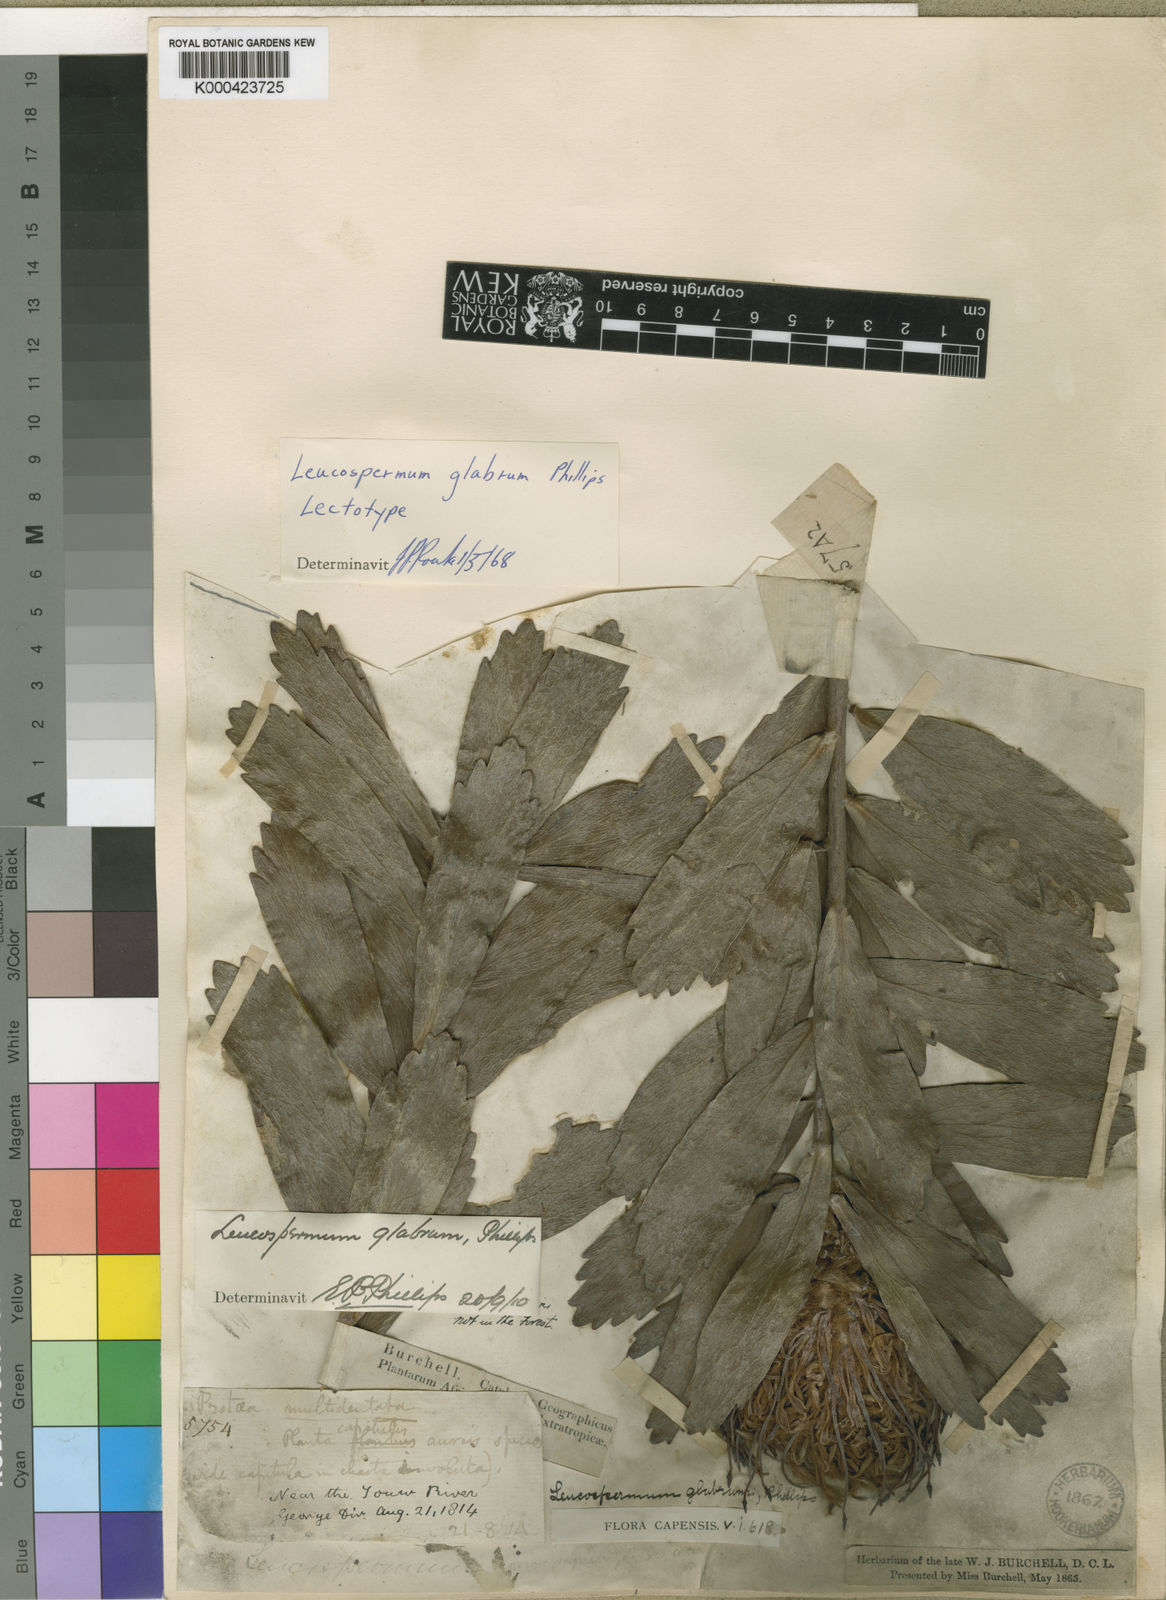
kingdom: Plantae
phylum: Tracheophyta
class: Magnoliopsida
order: Proteales
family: Proteaceae
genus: Leucospermum
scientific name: Leucospermum glabrum
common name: Outeniqua pincushion
